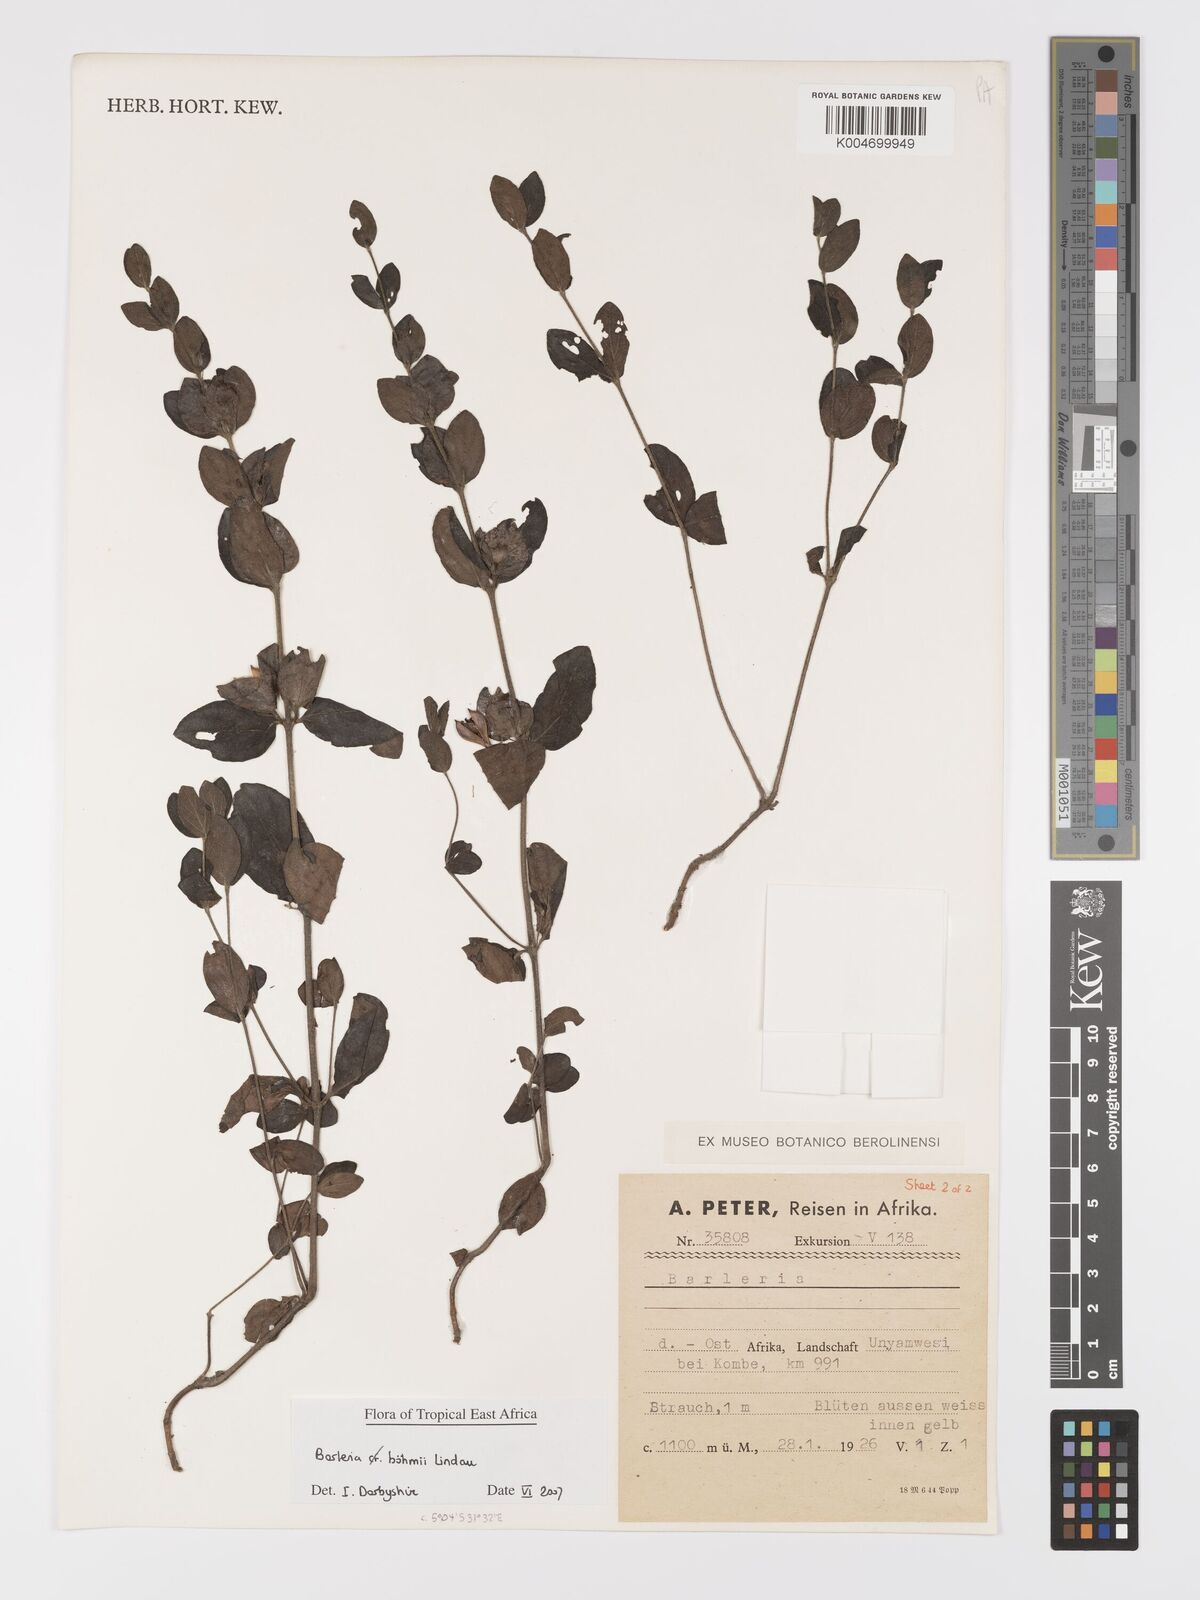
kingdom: Plantae
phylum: Tracheophyta
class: Magnoliopsida
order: Lamiales
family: Acanthaceae
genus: Barleria
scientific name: Barleria boehmii
